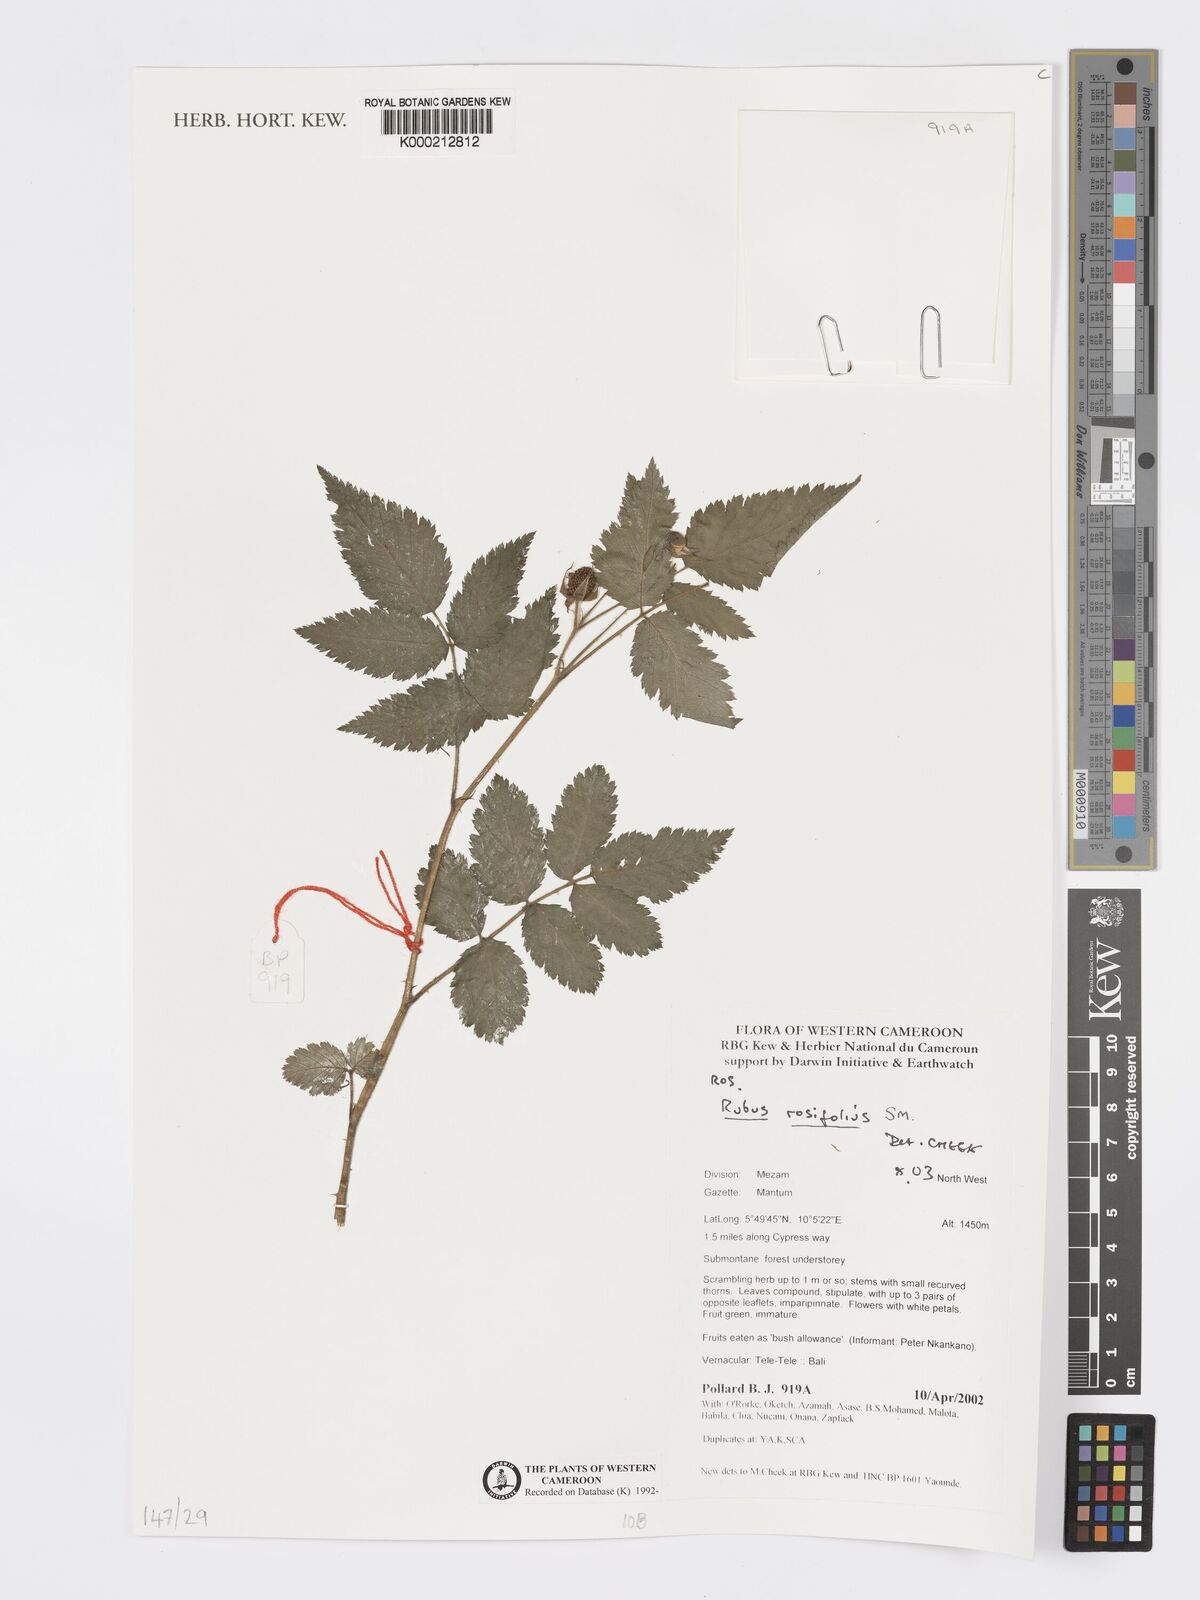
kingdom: Plantae
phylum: Tracheophyta
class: Magnoliopsida
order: Rosales
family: Rosaceae
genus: Rubus
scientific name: Rubus rosifolius
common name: Roseleaf raspberry
